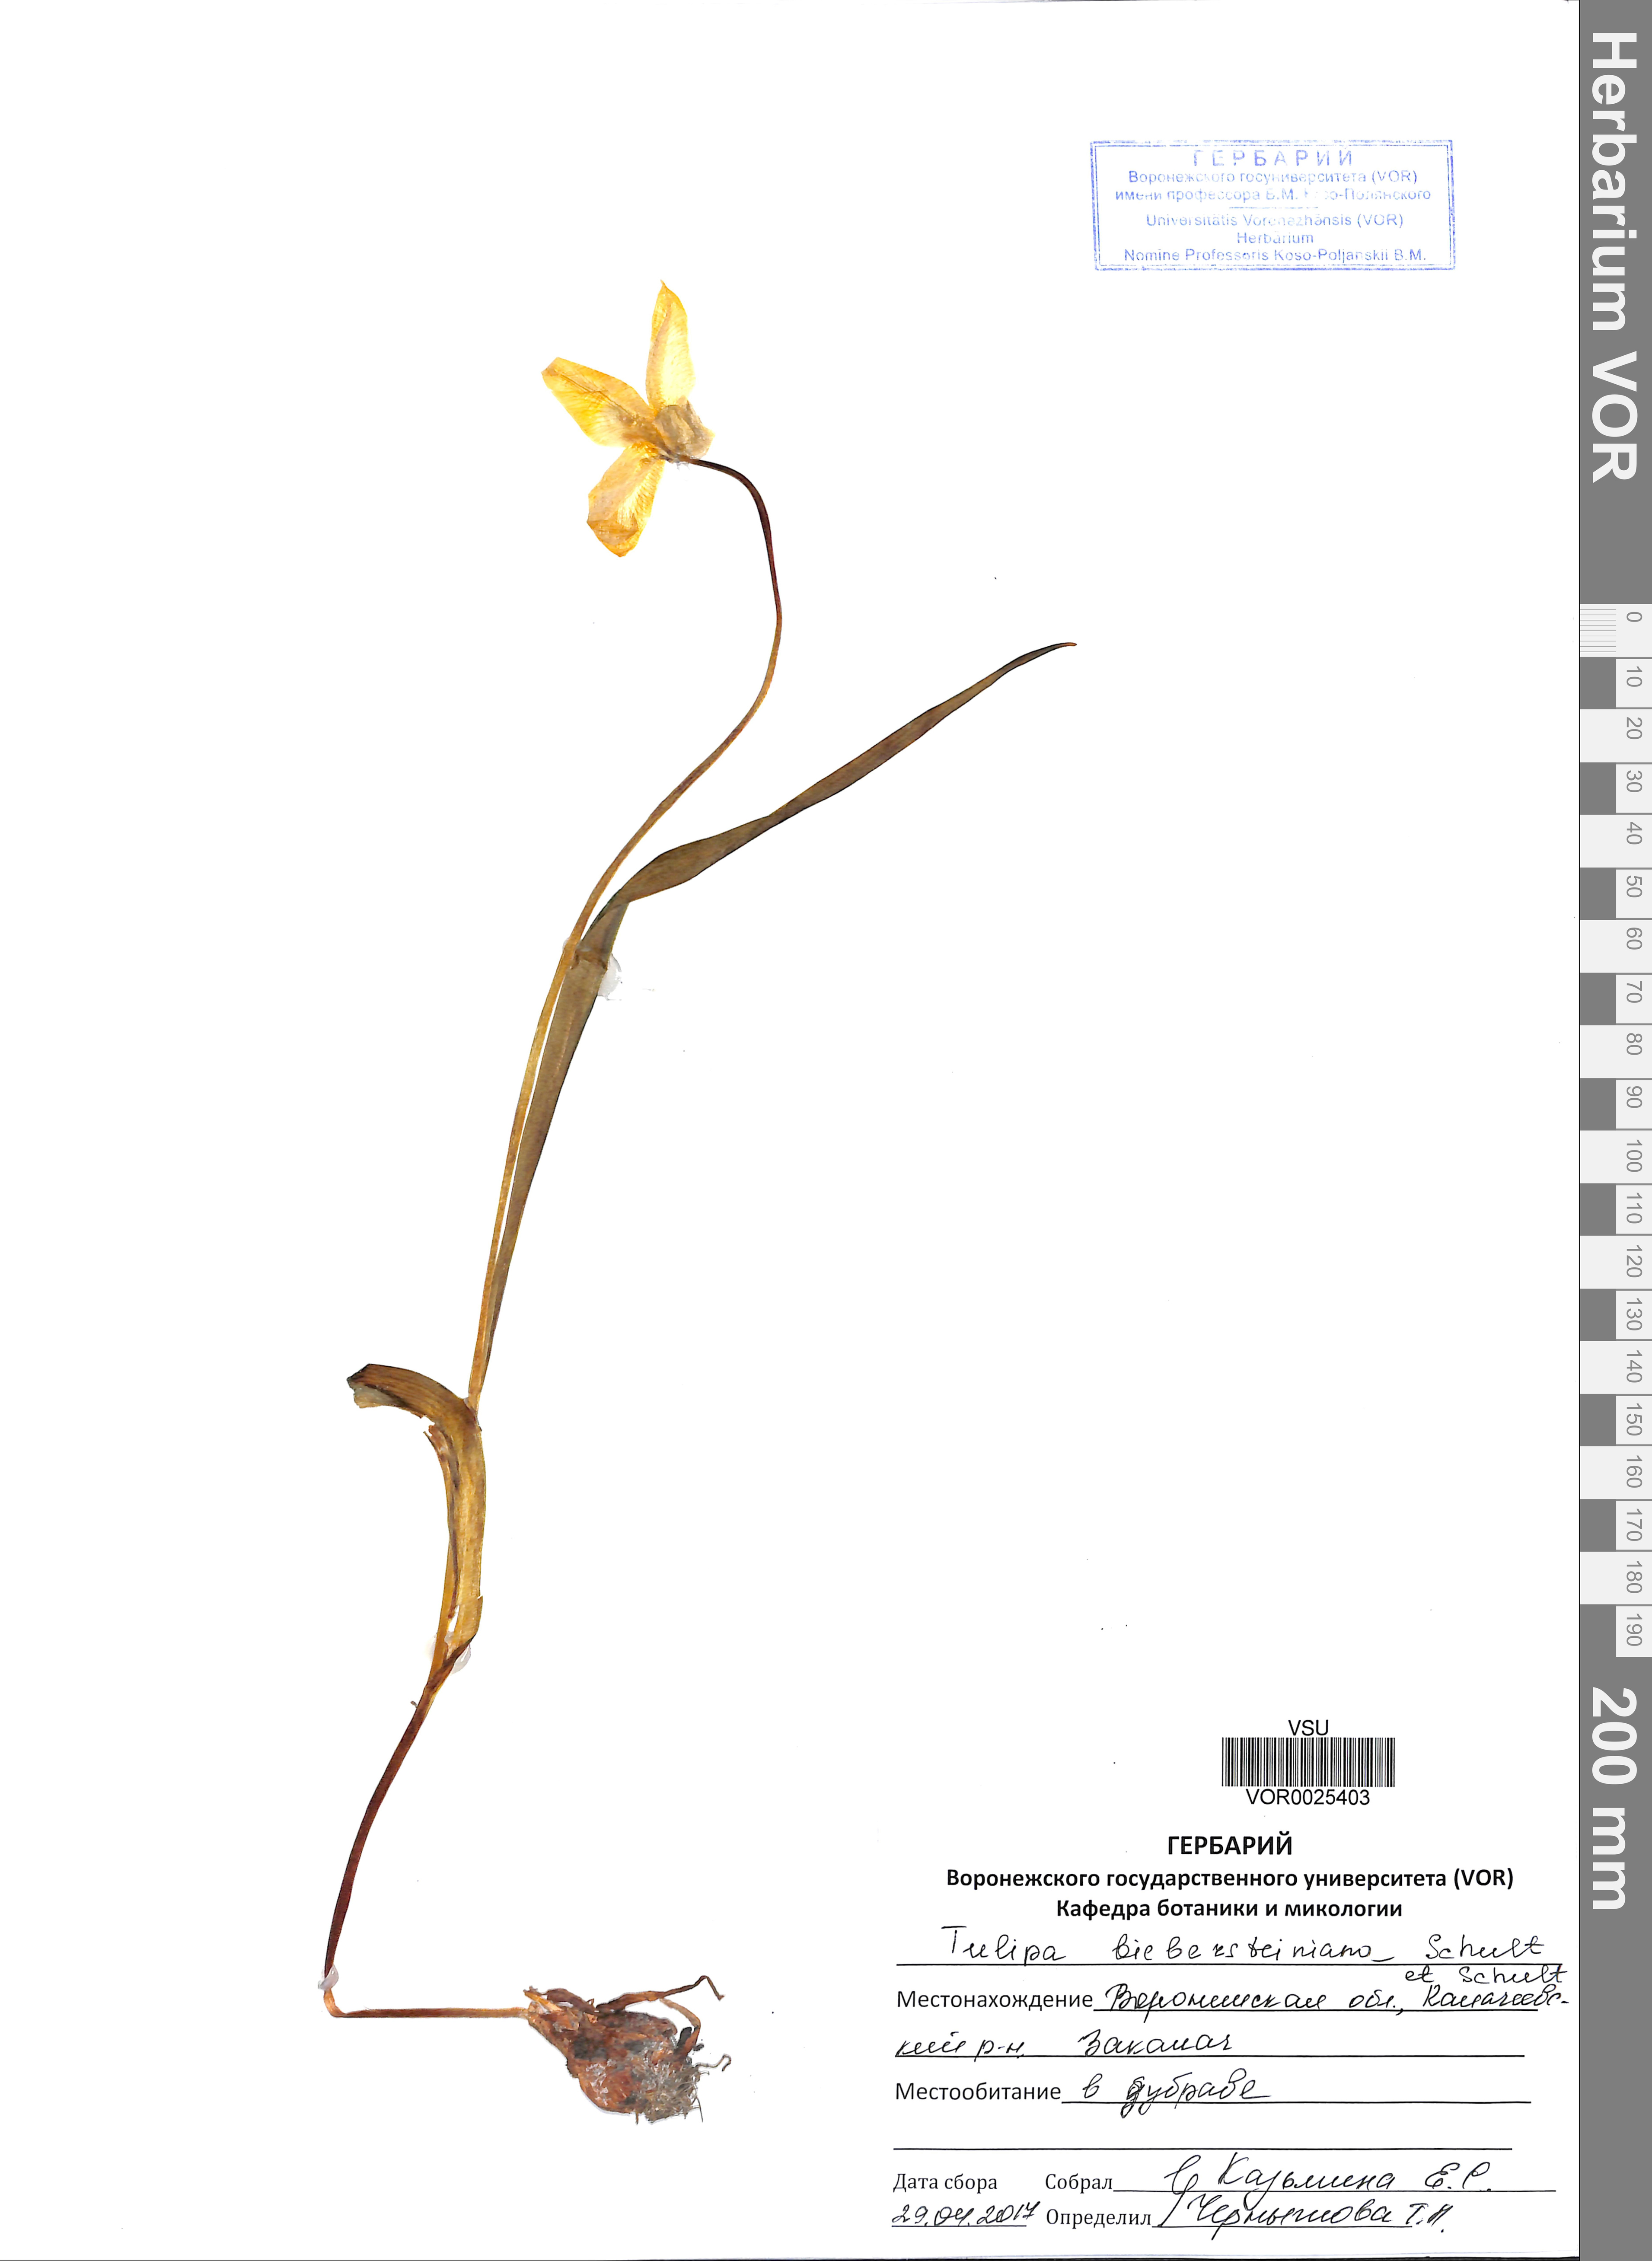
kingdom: Plantae
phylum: Tracheophyta
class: Liliopsida
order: Liliales
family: Liliaceae
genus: Tulipa
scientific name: Tulipa sylvestris
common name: Wild tulip
